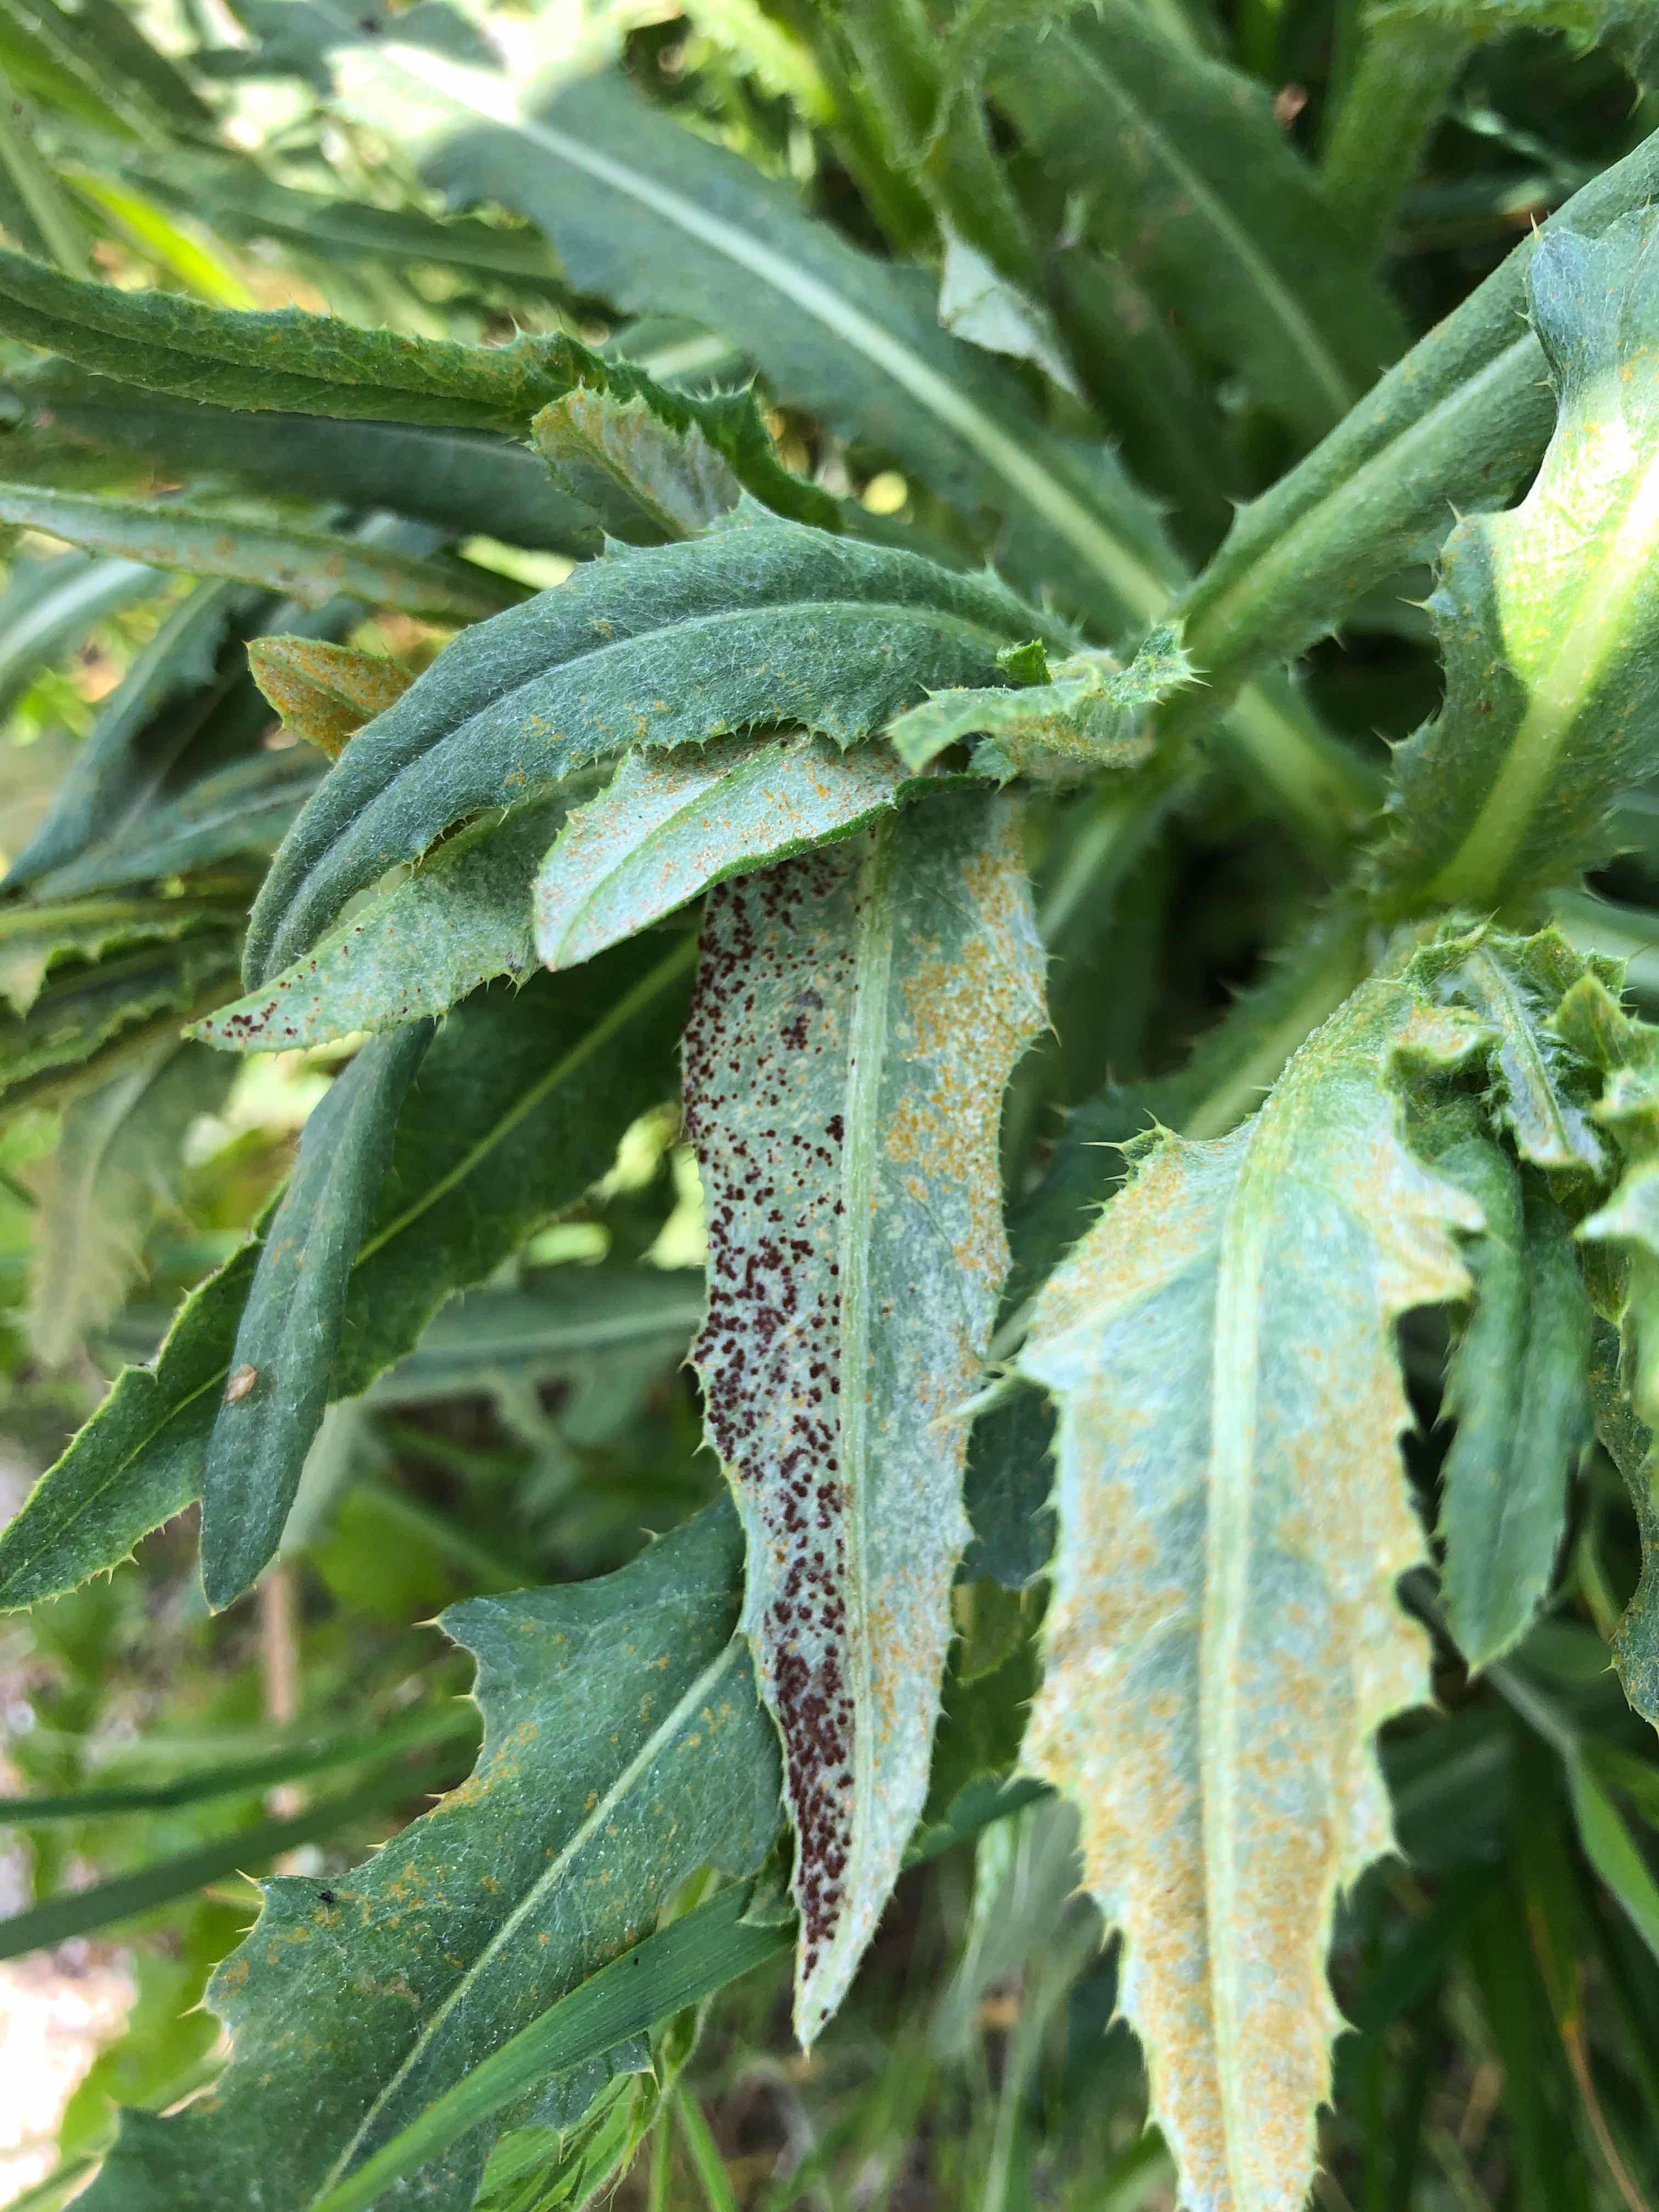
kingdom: Fungi
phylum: Basidiomycota
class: Pucciniomycetes
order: Pucciniales
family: Pucciniaceae
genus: Puccinia
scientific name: Puccinia suaveolens
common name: tidsel-tvecellerust
